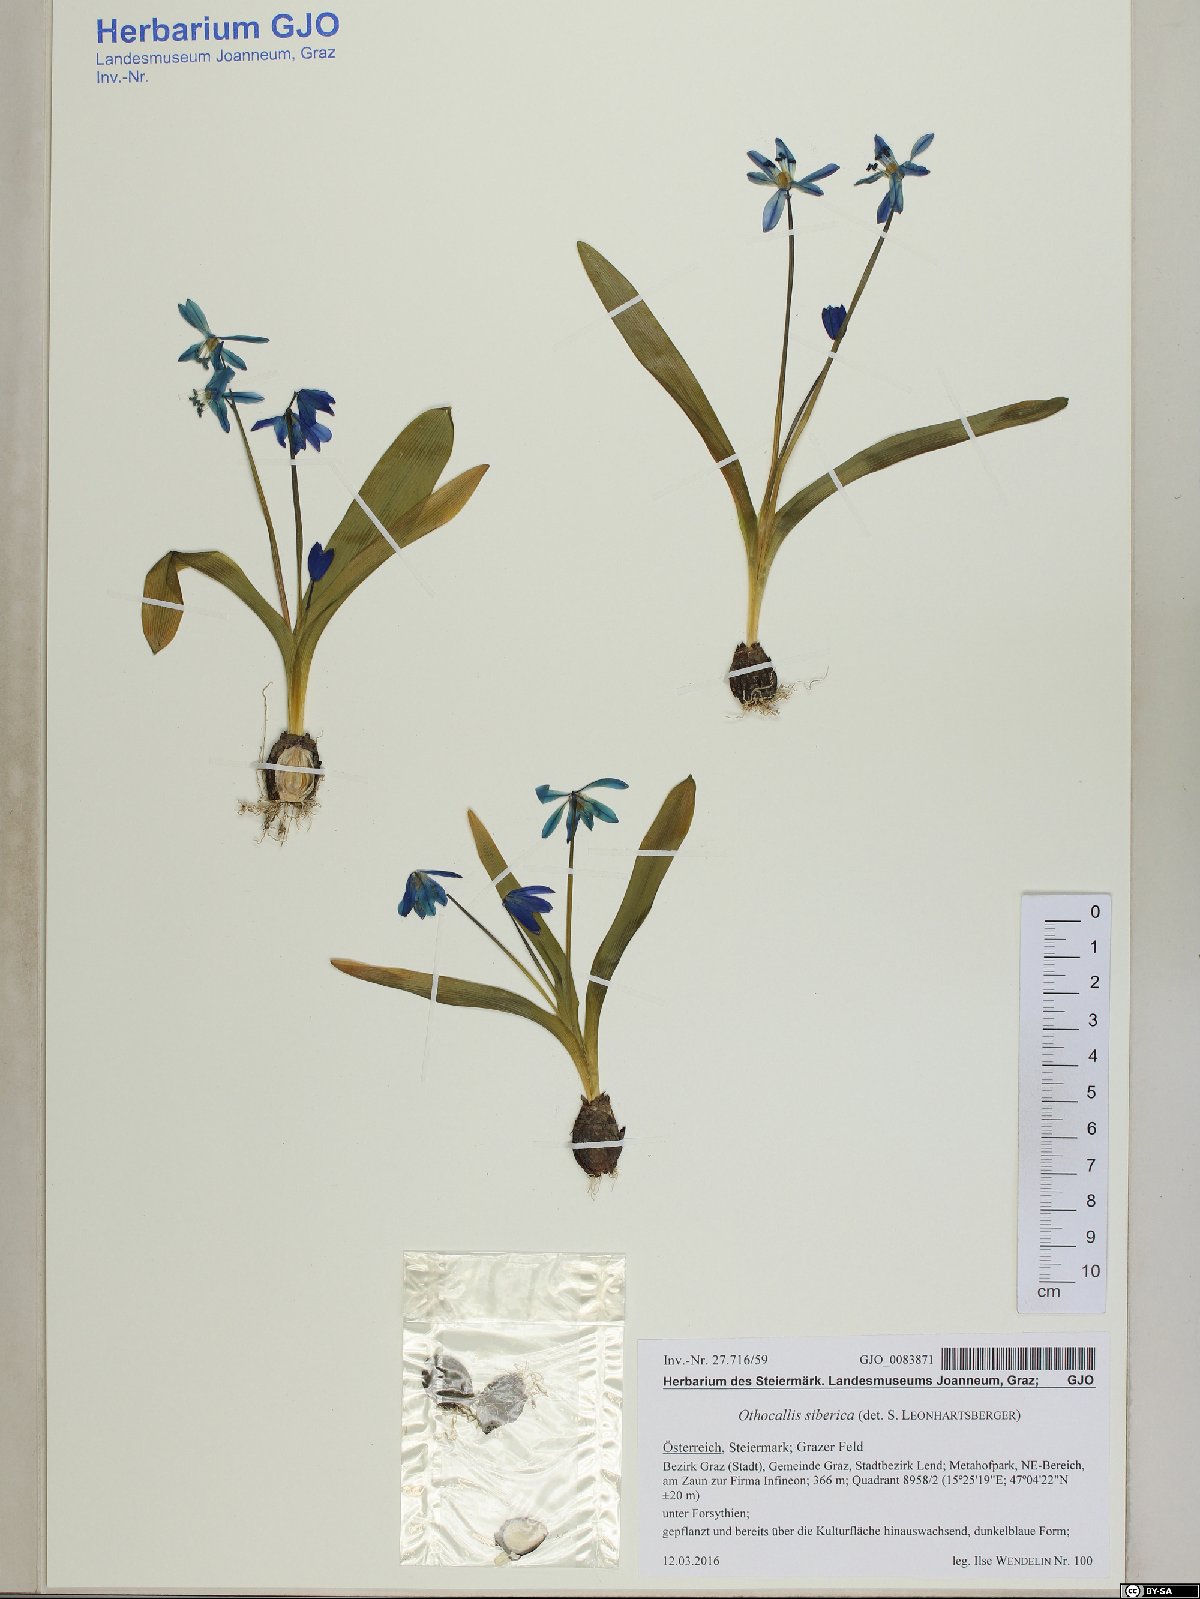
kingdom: Plantae
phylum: Tracheophyta
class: Liliopsida
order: Asparagales
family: Asparagaceae
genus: Scilla
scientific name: Scilla siberica
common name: Siberian squill
